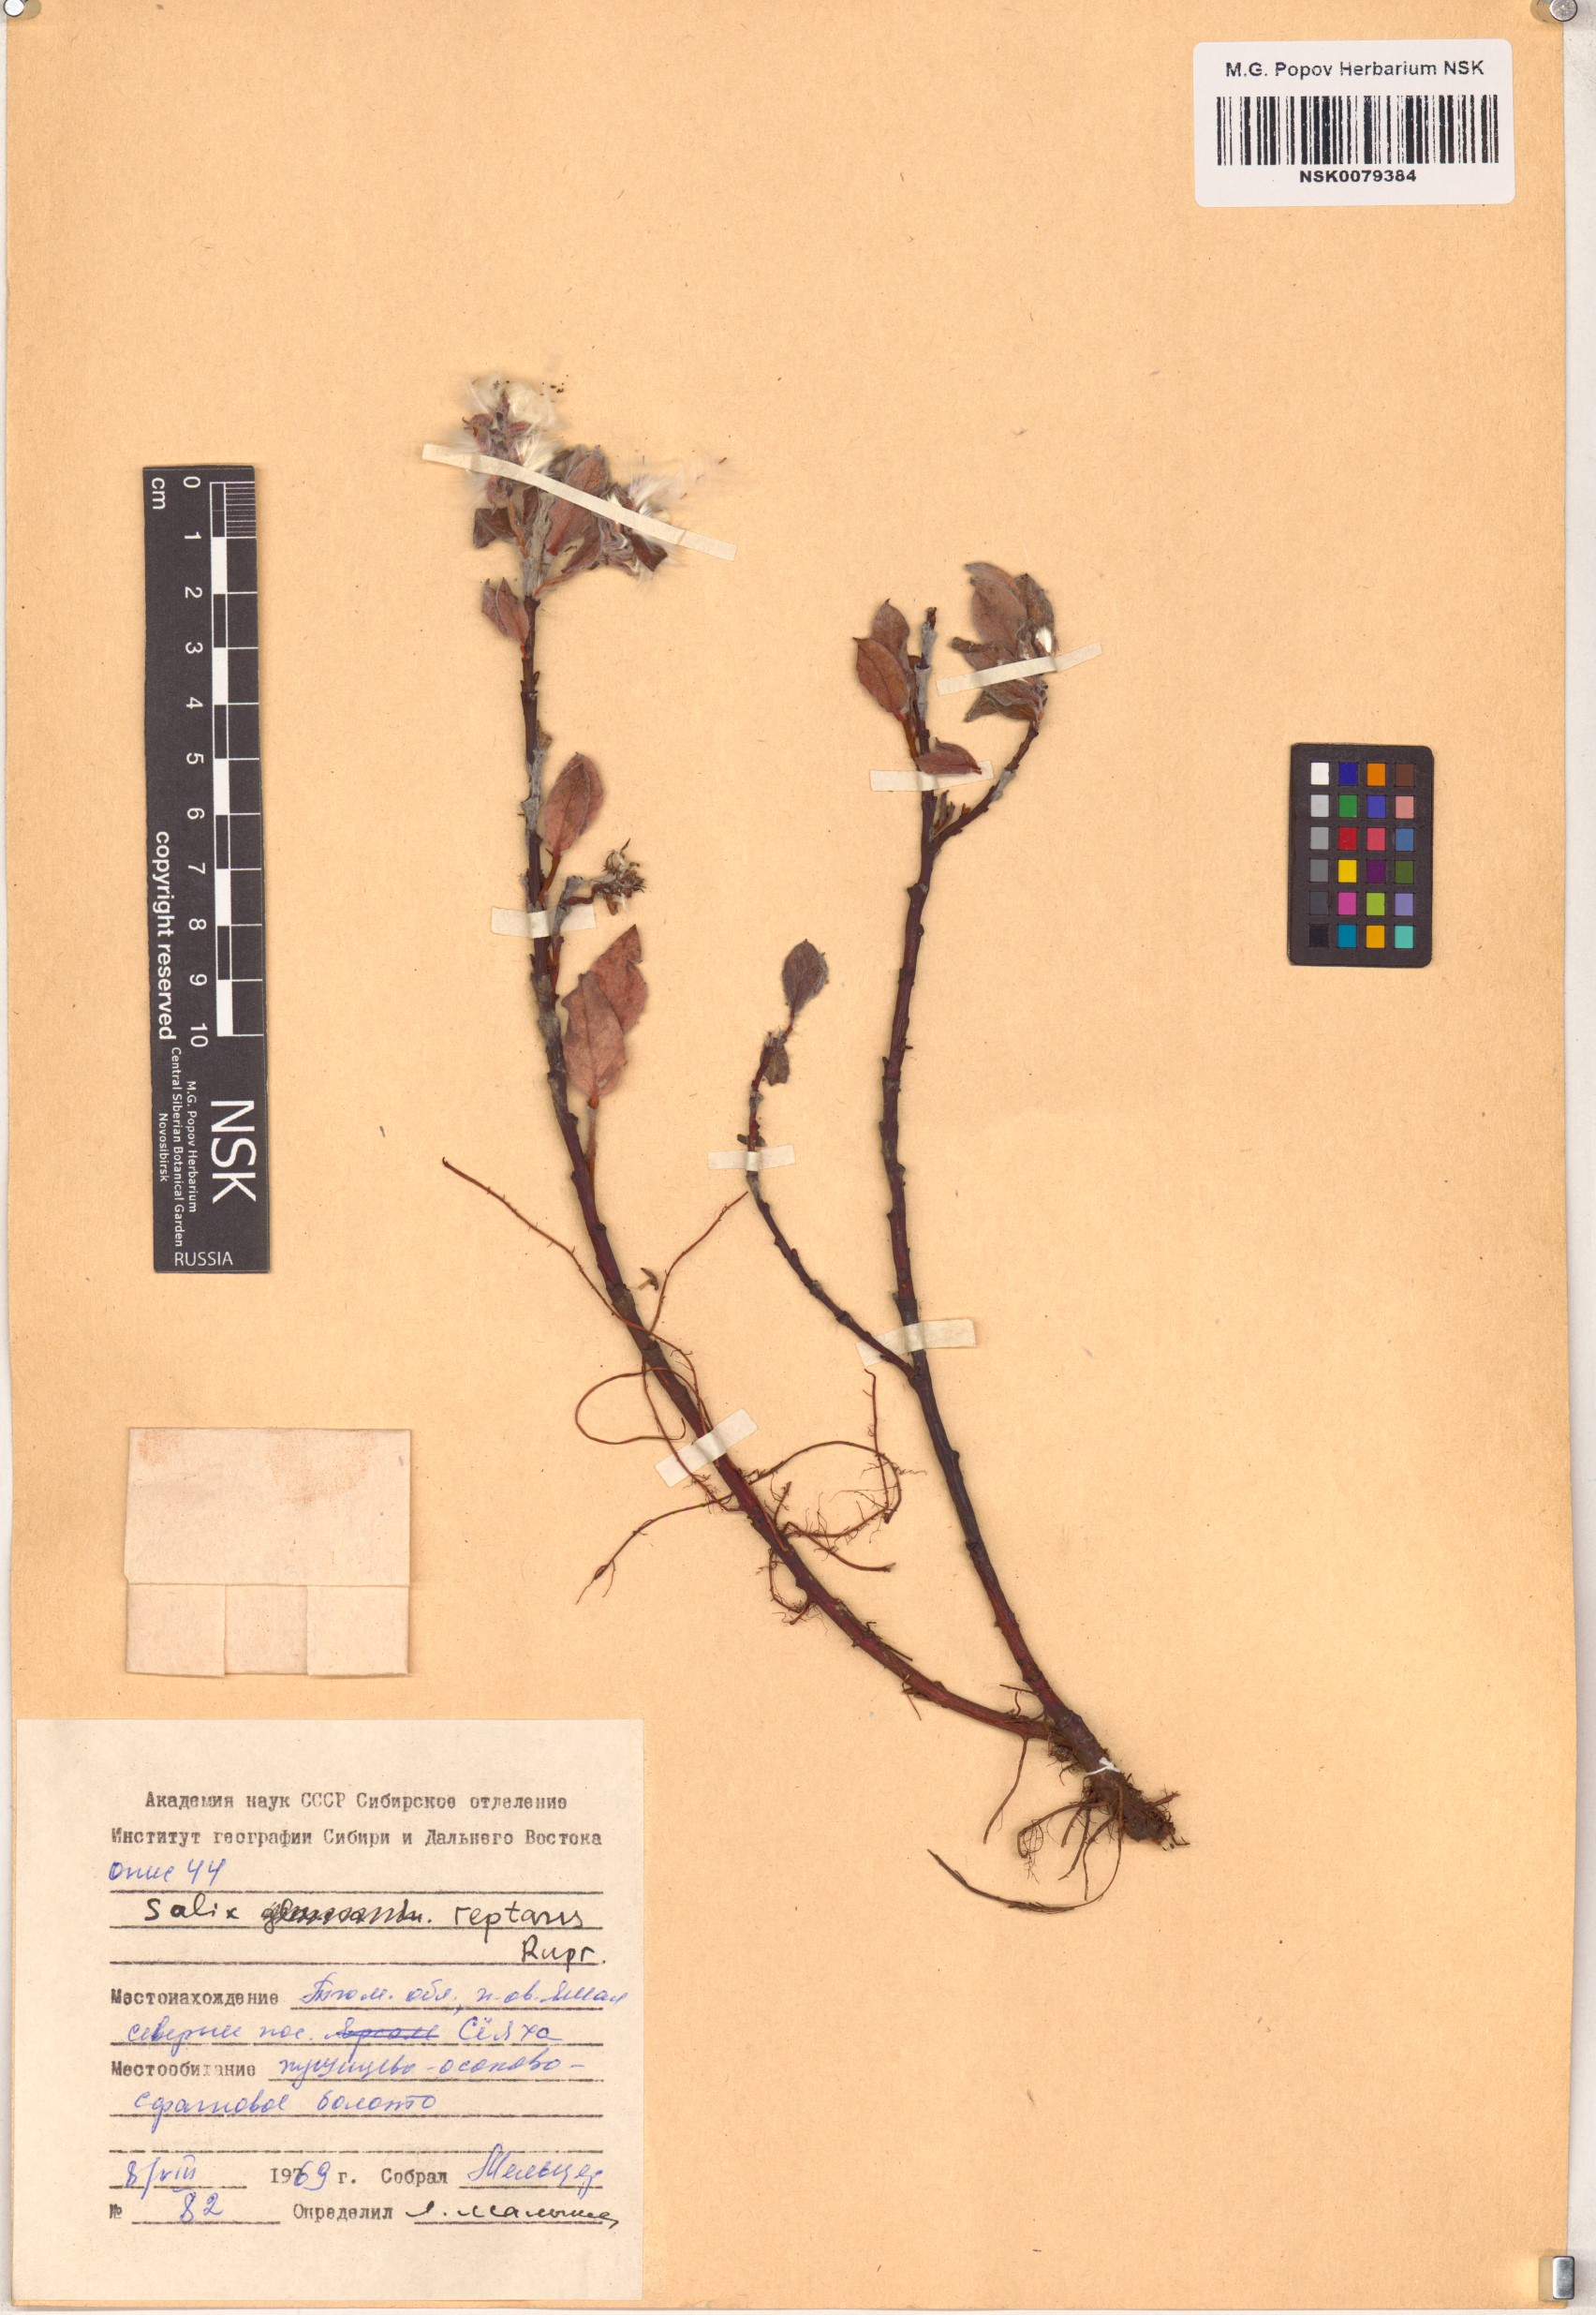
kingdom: Plantae
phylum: Tracheophyta
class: Magnoliopsida
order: Malpighiales
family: Salicaceae
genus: Salix
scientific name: Salix reptans
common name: Arctic creeping willow
